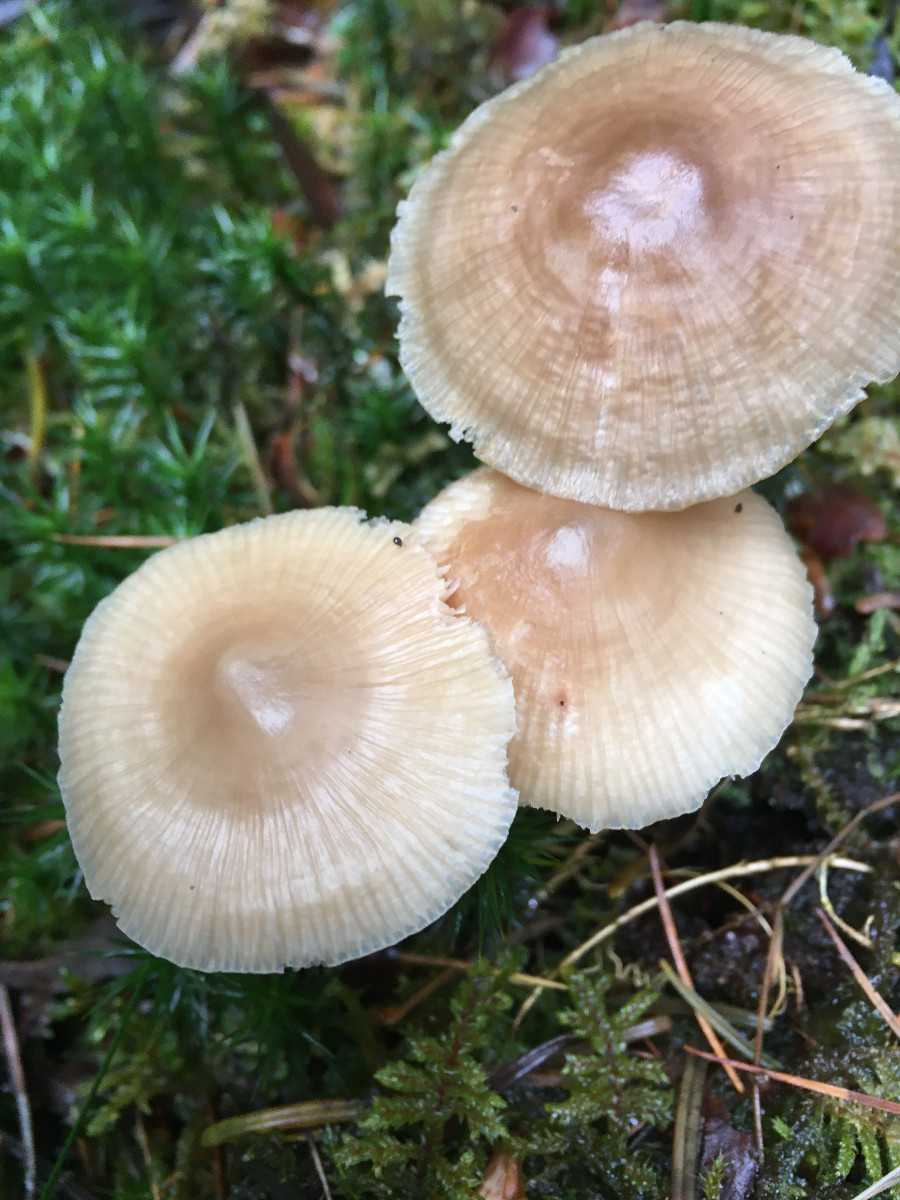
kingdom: Fungi
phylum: Basidiomycota
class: Agaricomycetes
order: Agaricales
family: Mycenaceae
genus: Mycena
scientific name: Mycena
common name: huesvamp
